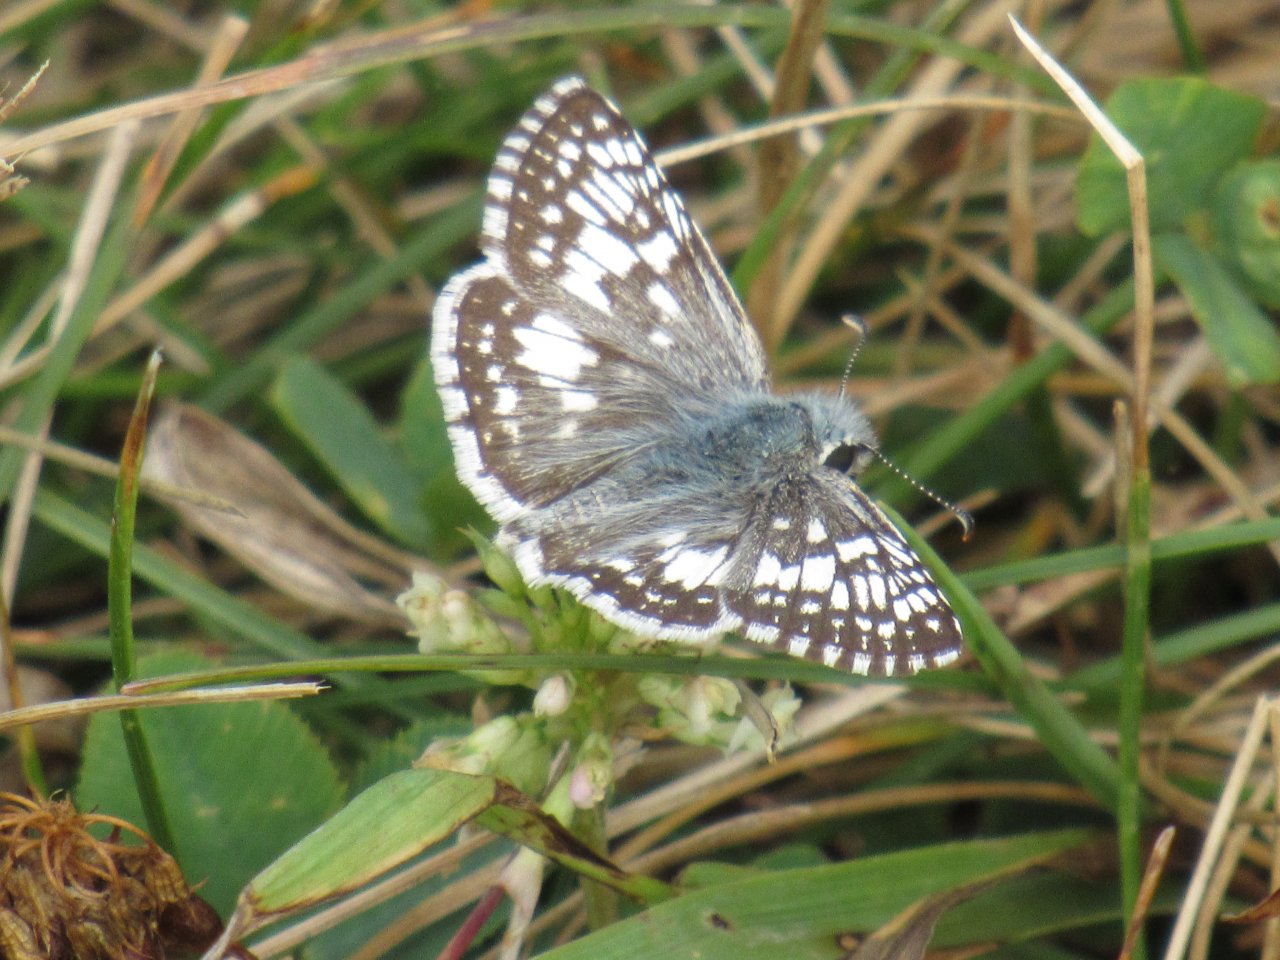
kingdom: Animalia
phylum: Arthropoda
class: Insecta
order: Lepidoptera
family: Hesperiidae
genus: Pyrgus
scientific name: Pyrgus communis
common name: Common Checkered-Skipper
